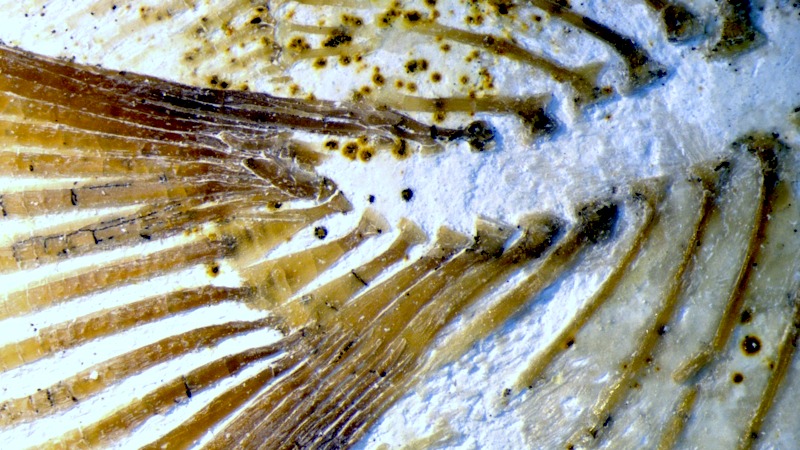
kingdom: Animalia
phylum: Chordata
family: Pycnodontidae
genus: Turbomesodon
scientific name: Turbomesodon relegans
